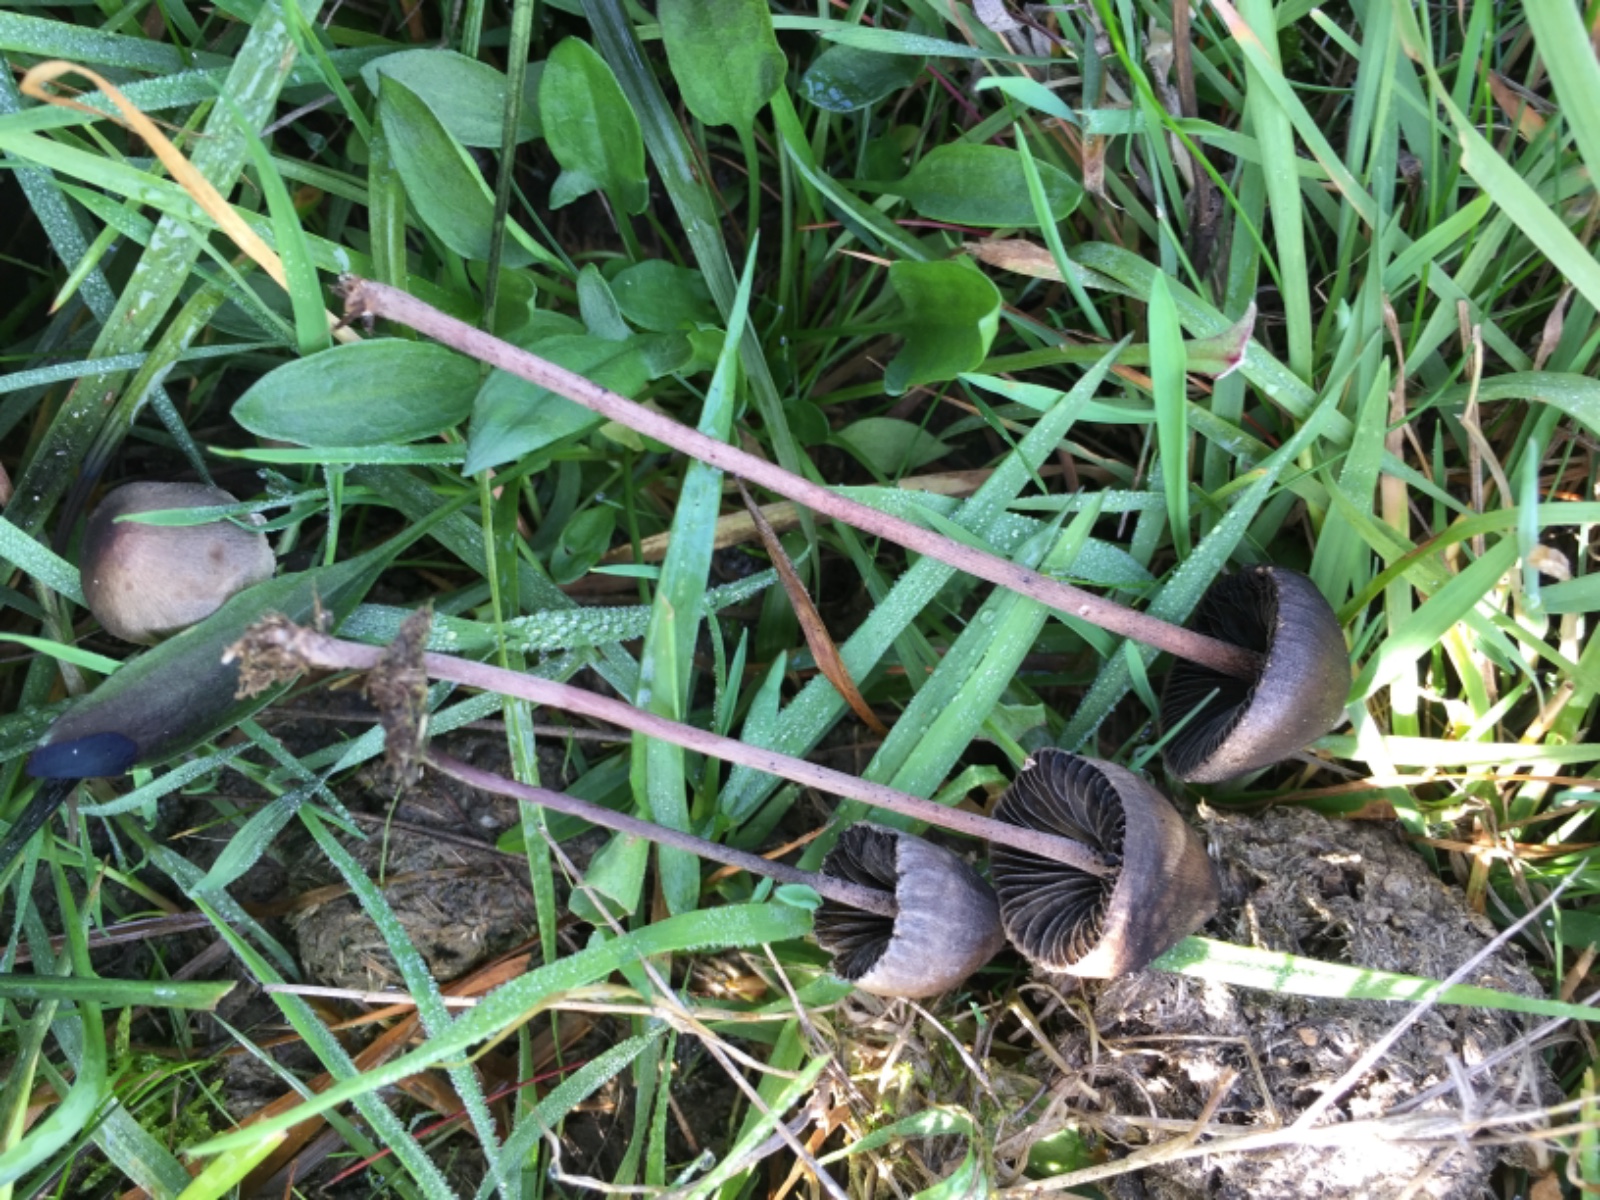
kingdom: Fungi
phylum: Basidiomycota
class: Agaricomycetes
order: Agaricales
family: Bolbitiaceae
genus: Panaeolus
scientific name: Panaeolus
